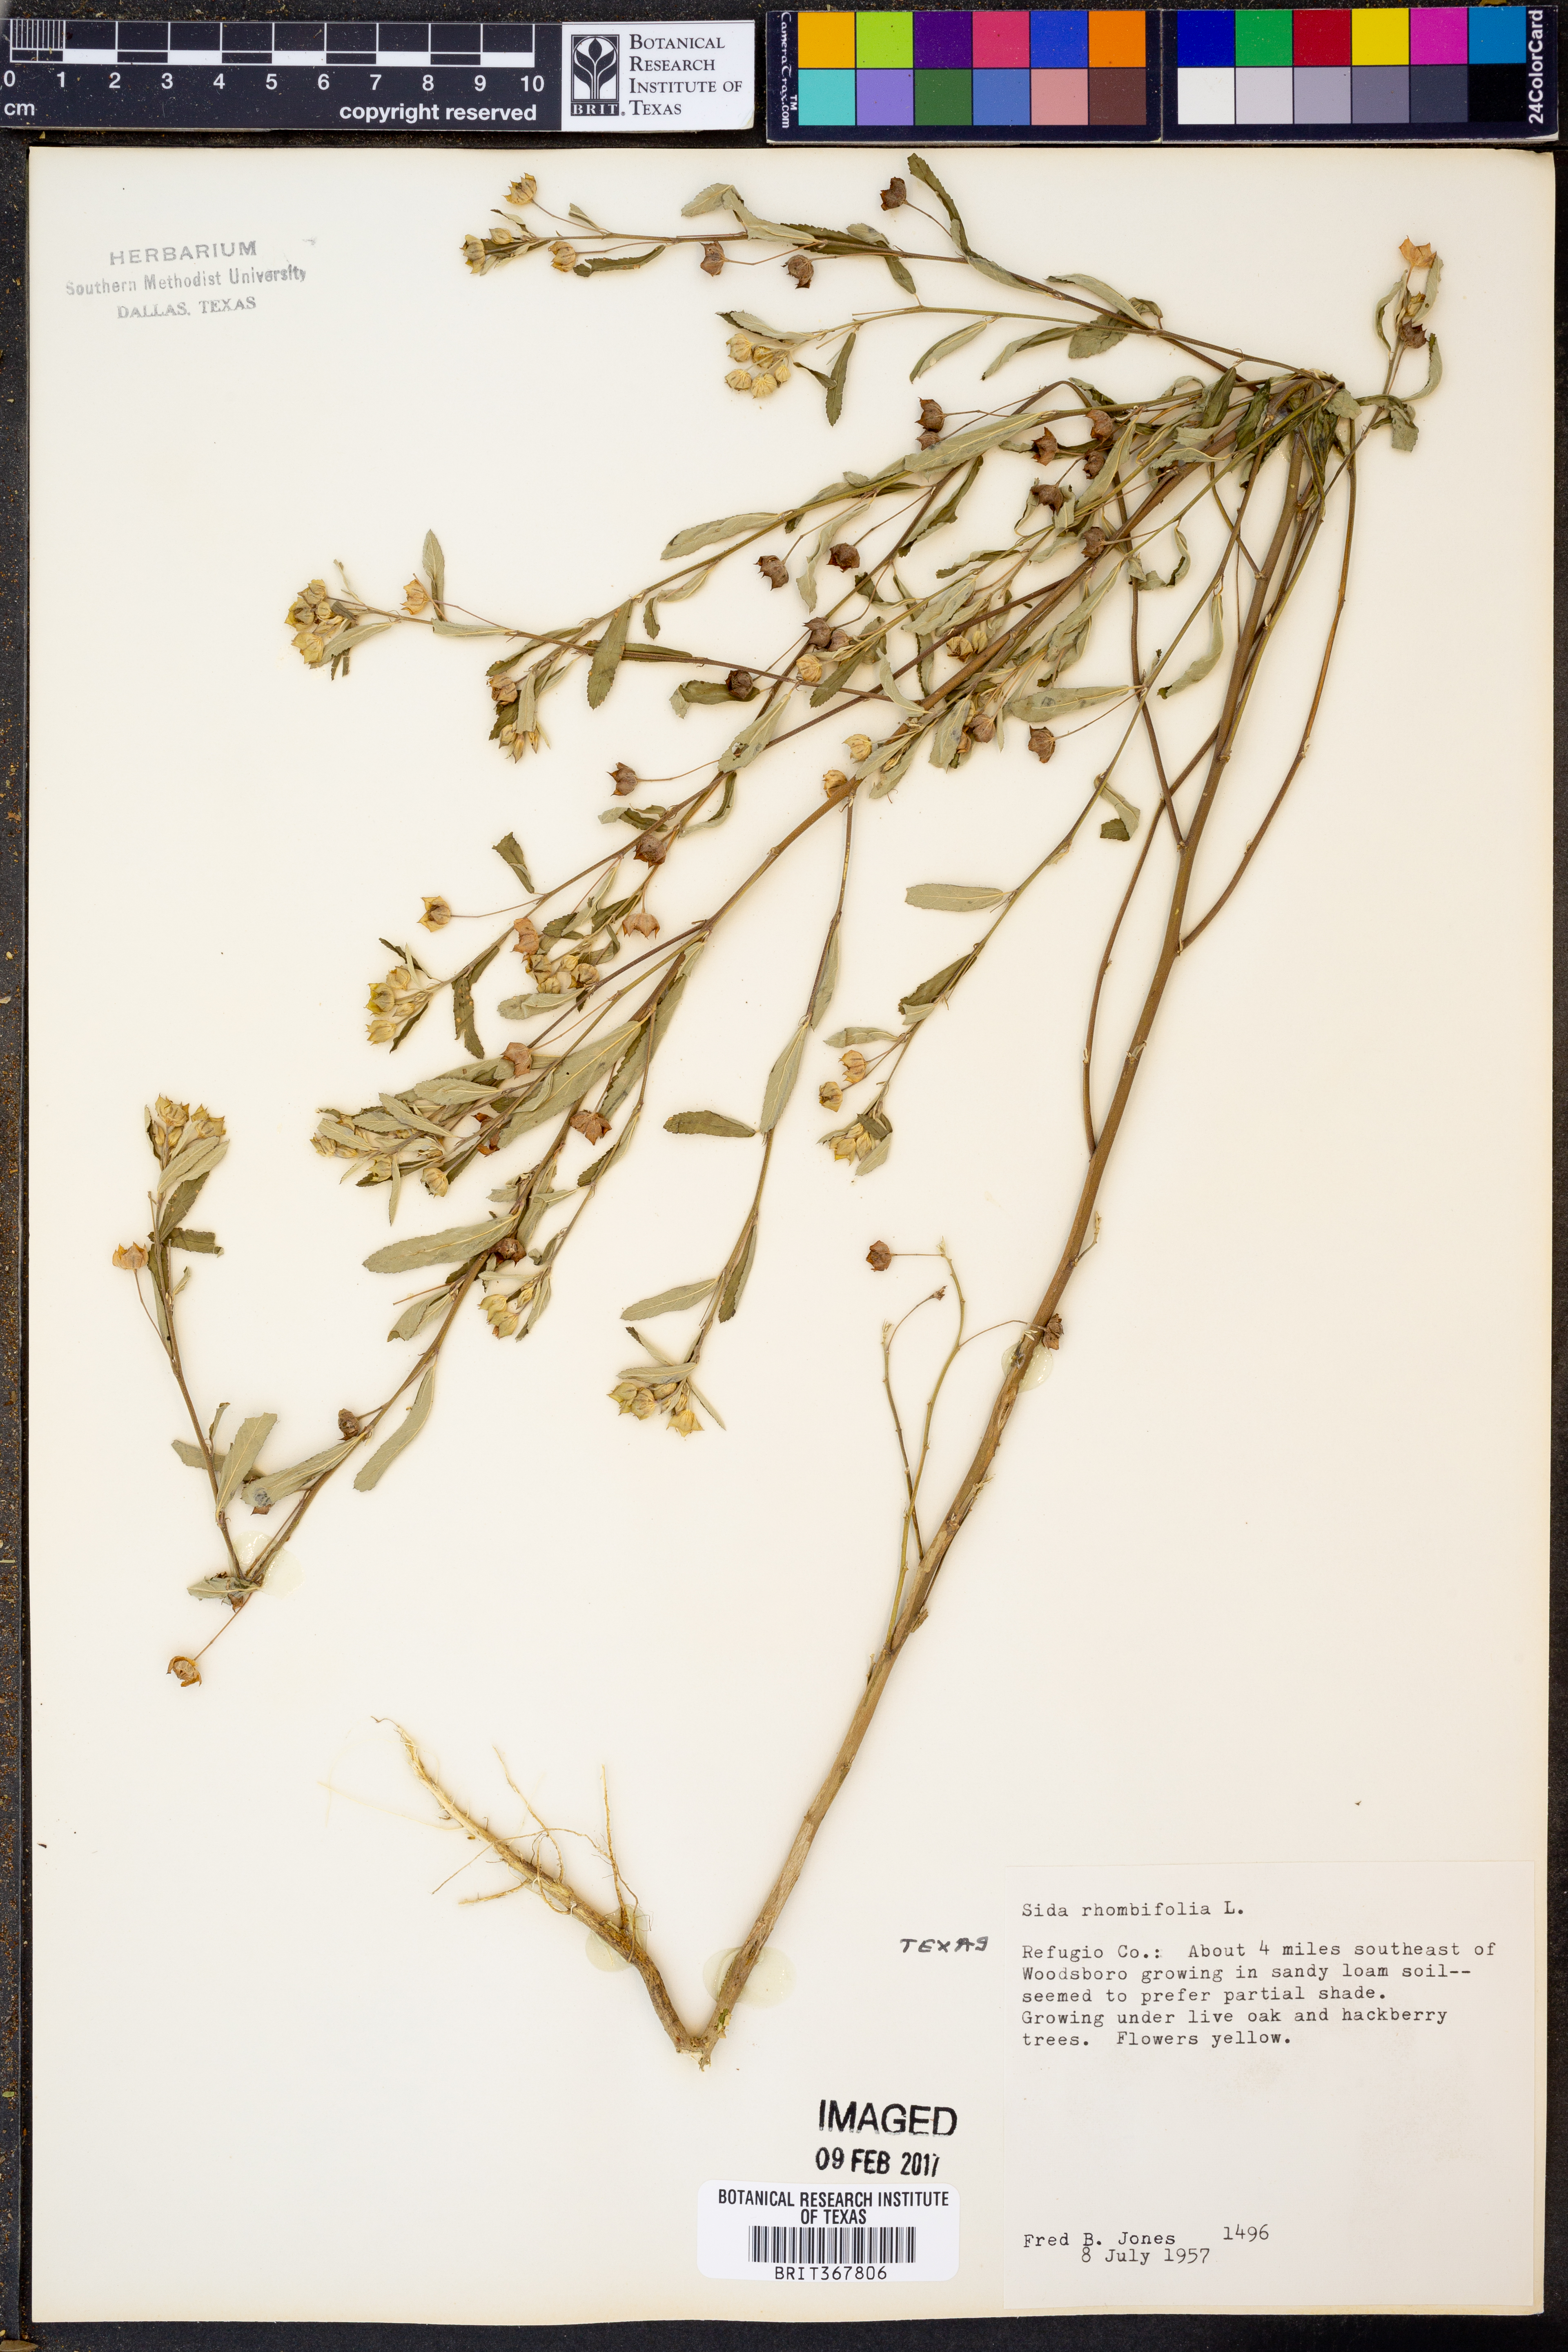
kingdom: Plantae
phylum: Tracheophyta
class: Magnoliopsida
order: Malvales
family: Malvaceae
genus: Sida
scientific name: Sida rhombifolia
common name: Queensland-hemp
